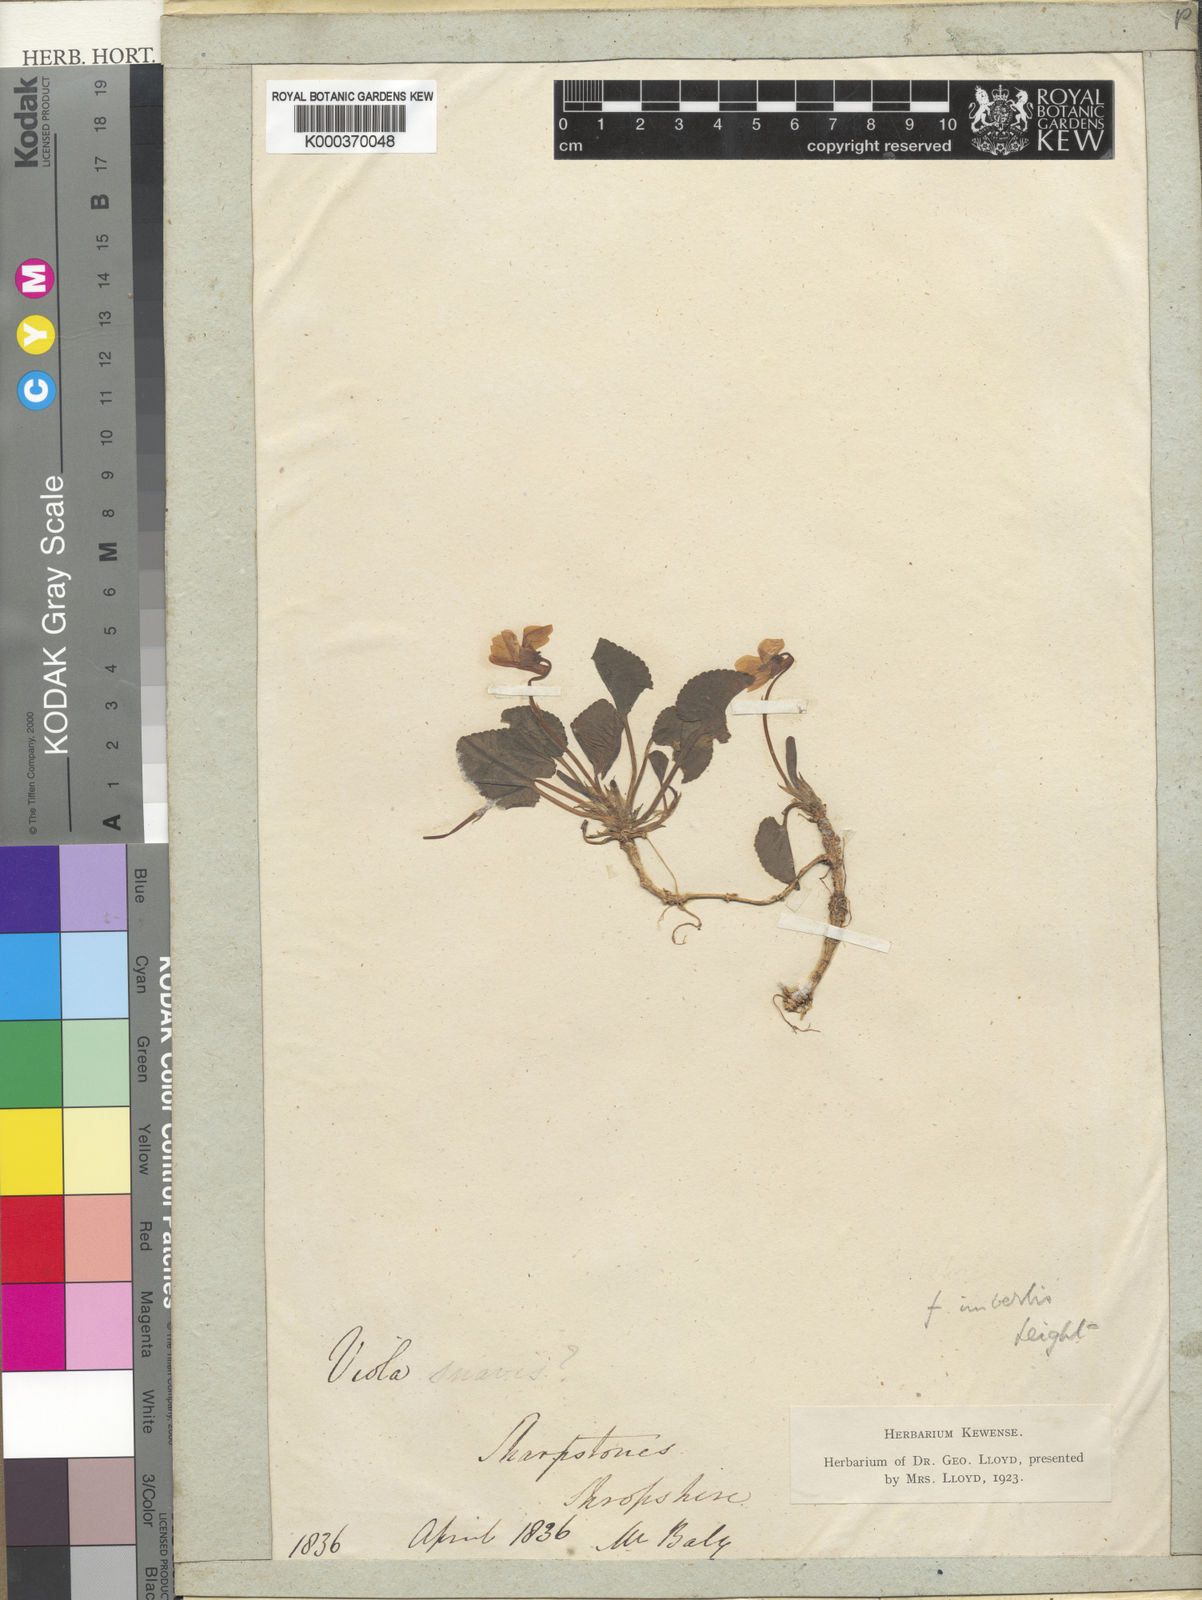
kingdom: Plantae
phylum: Tracheophyta
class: Magnoliopsida
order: Malpighiales
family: Violaceae
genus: Viola
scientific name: Viola odorata
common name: Sweet violet
